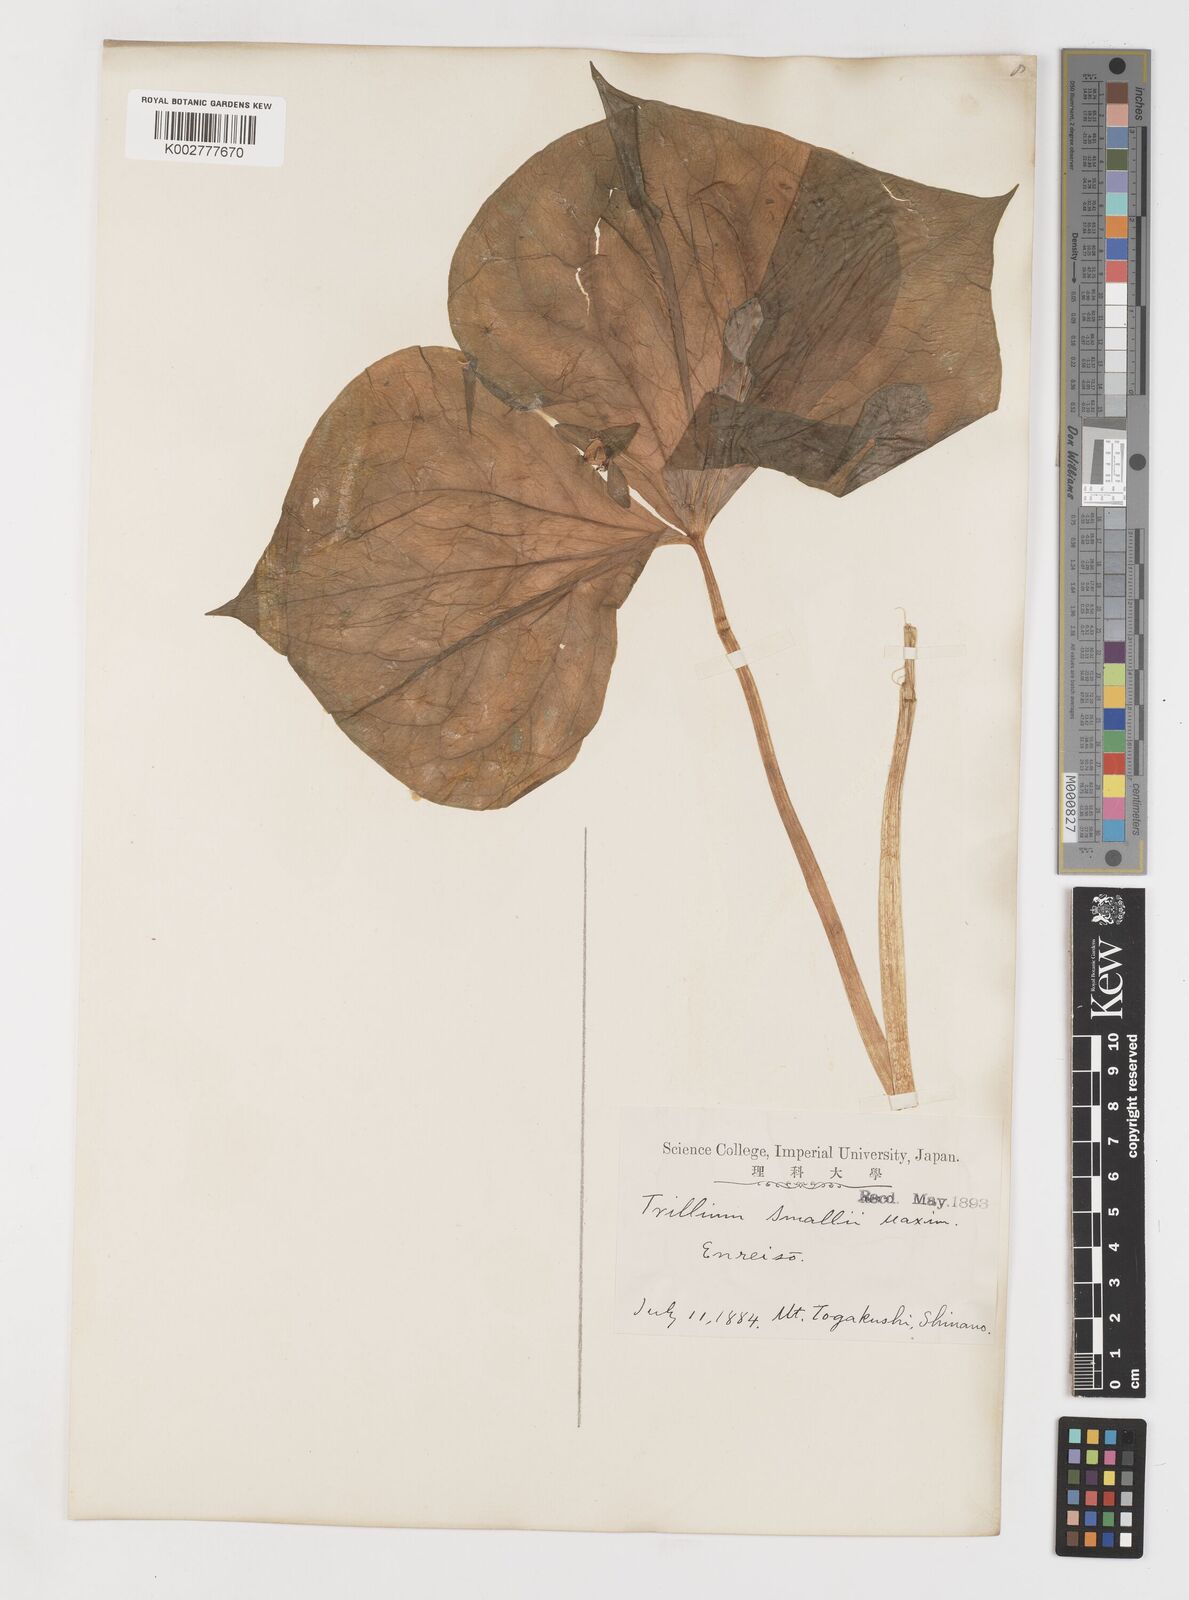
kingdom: Plantae
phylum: Tracheophyta
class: Liliopsida
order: Liliales
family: Melanthiaceae
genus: Trillium
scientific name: Trillium smallii
